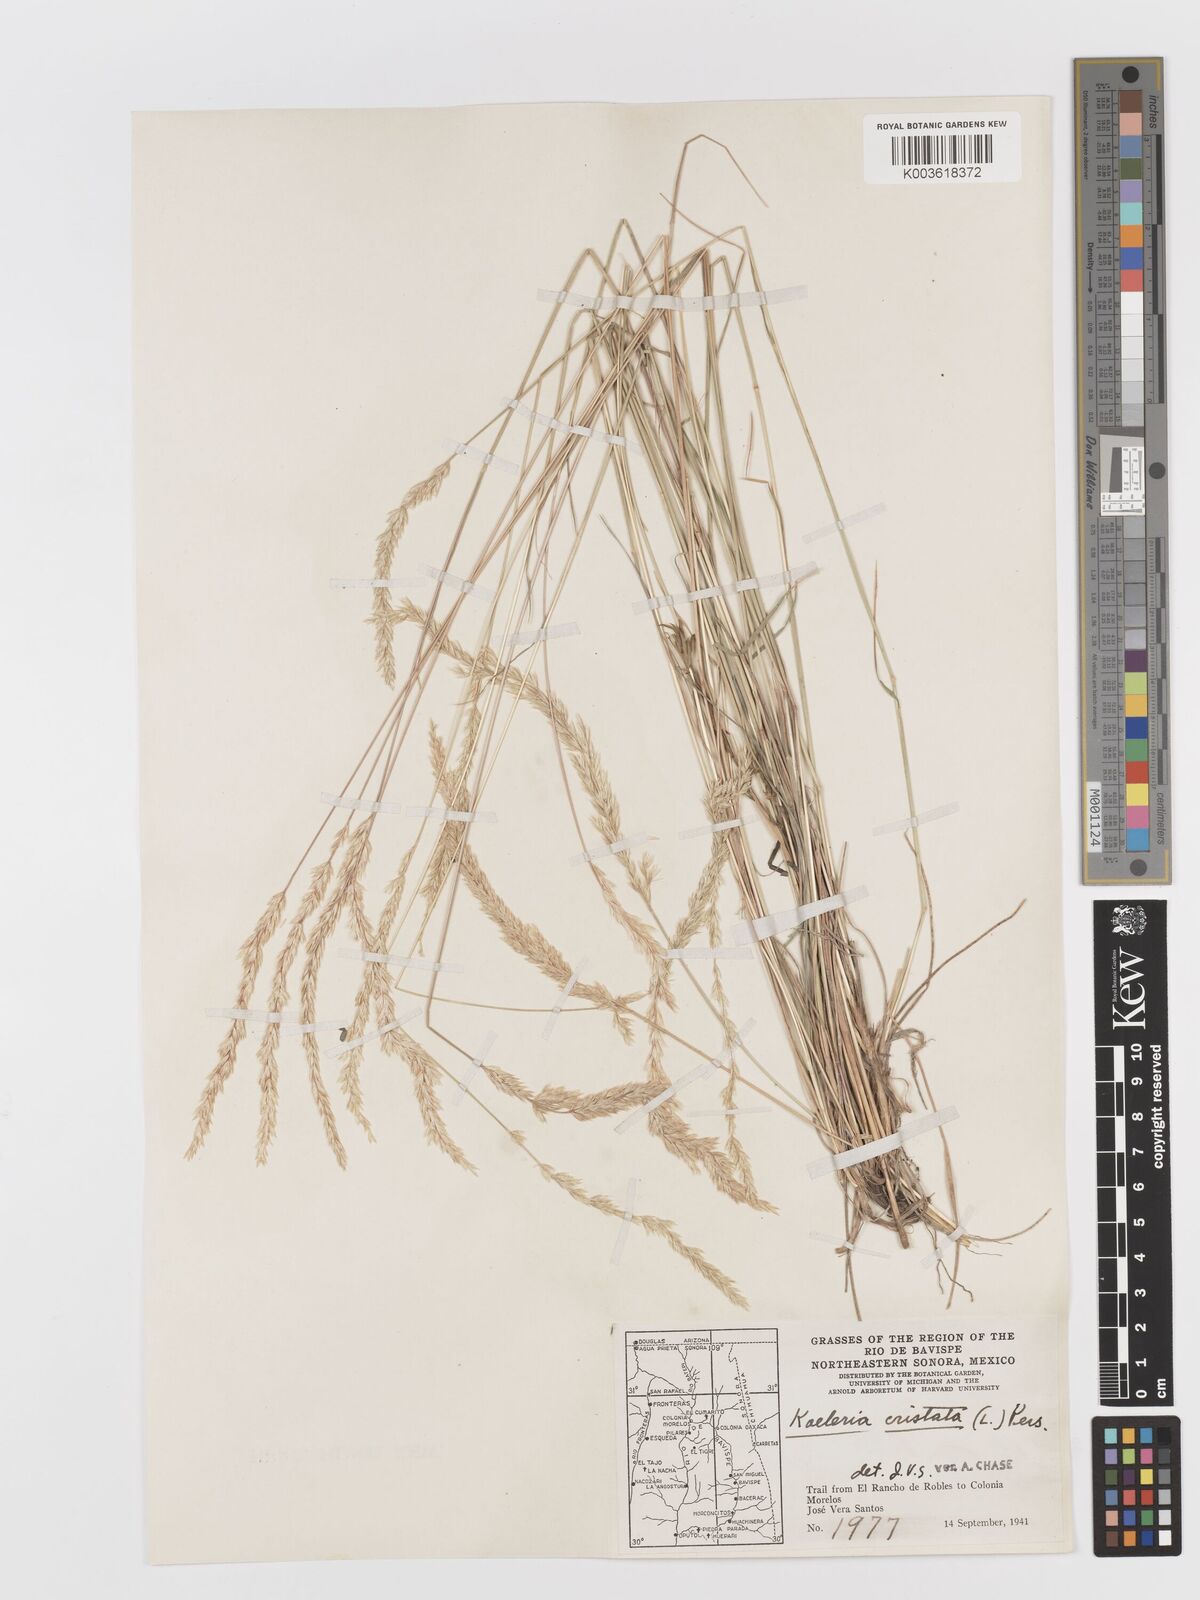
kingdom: Plantae
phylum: Tracheophyta
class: Liliopsida
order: Poales
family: Poaceae
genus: Koeleria
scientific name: Koeleria pyramidata
